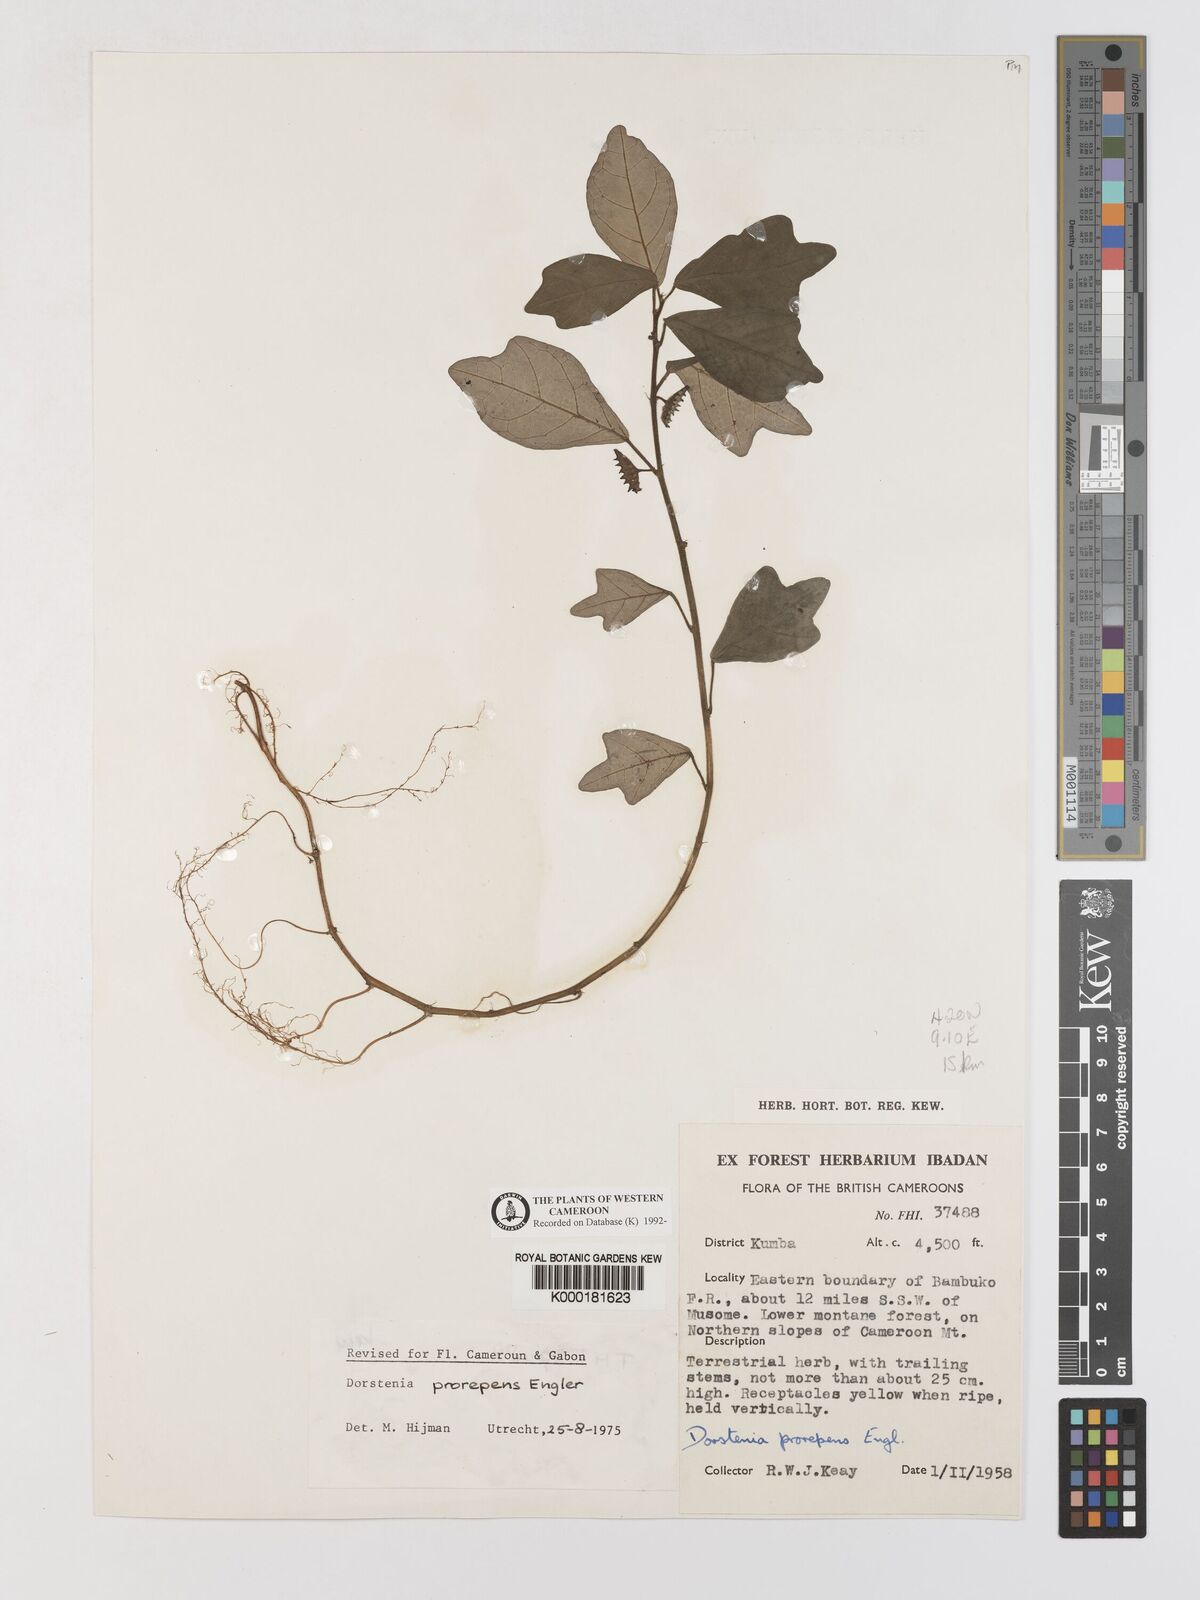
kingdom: Plantae
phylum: Tracheophyta
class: Magnoliopsida
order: Rosales
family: Moraceae
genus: Dorstenia
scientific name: Dorstenia prorepens
